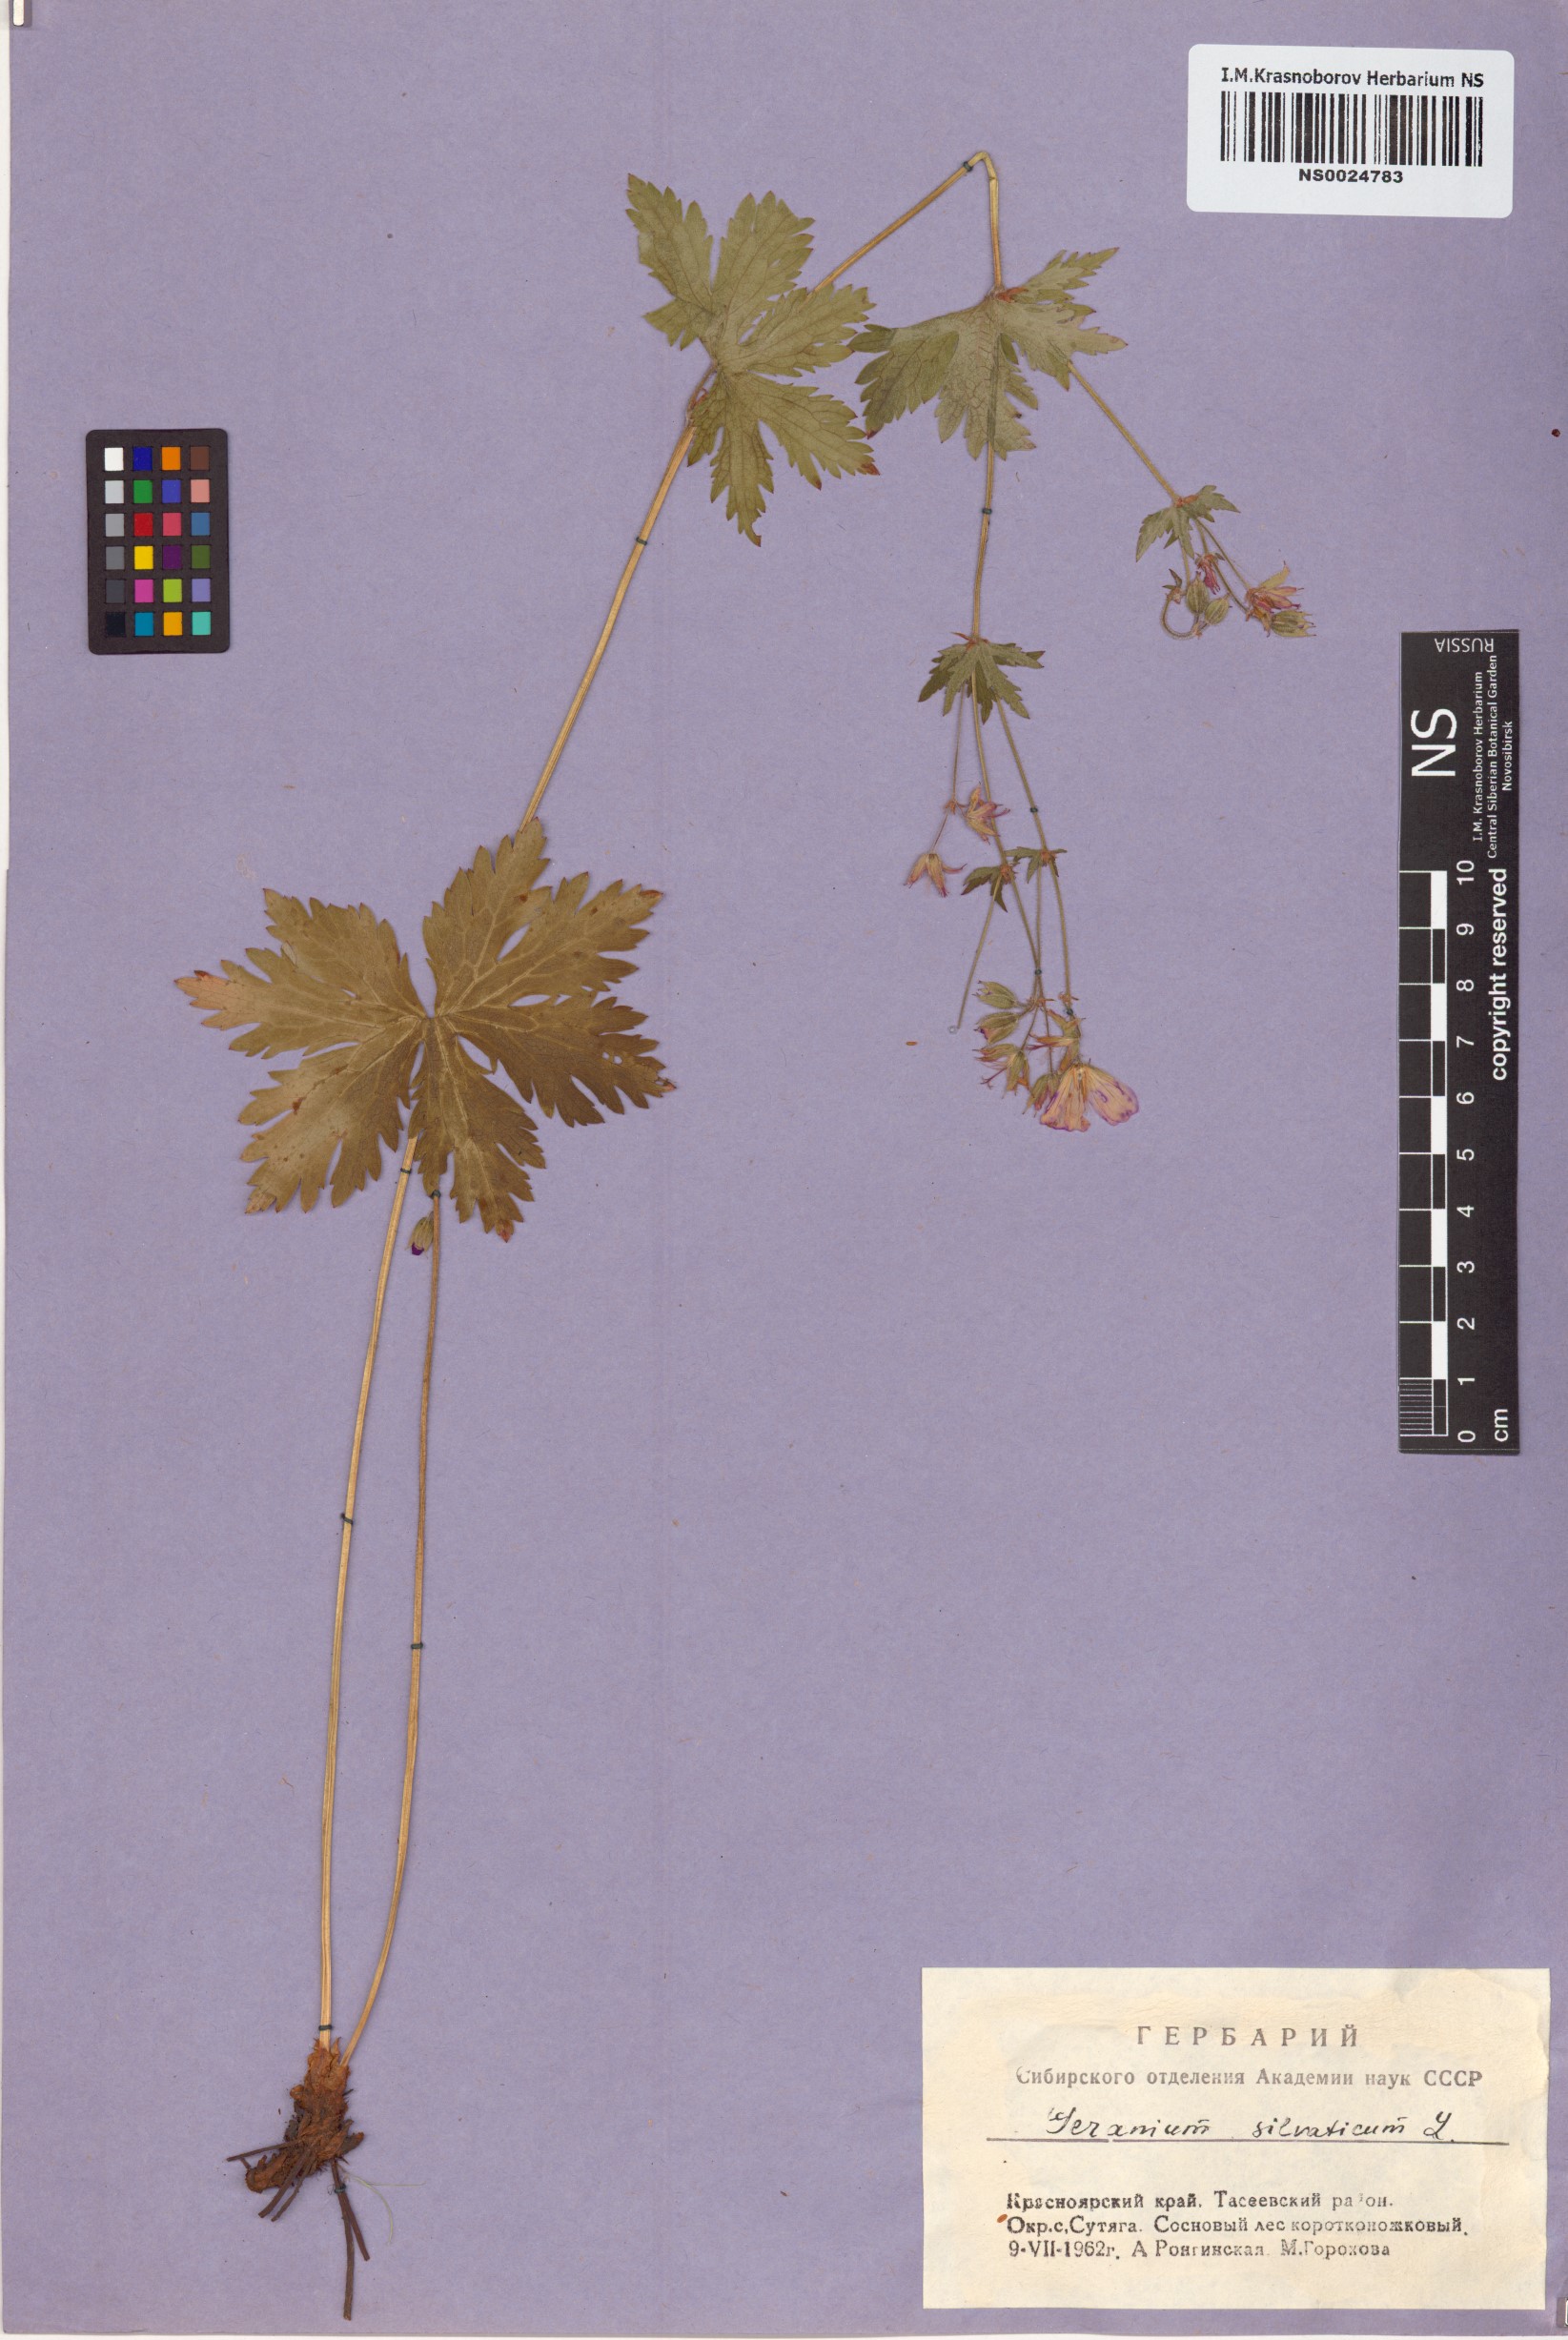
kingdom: Plantae
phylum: Tracheophyta
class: Magnoliopsida
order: Geraniales
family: Geraniaceae
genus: Geranium
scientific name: Geranium sylvaticum
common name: Wood crane's-bill
